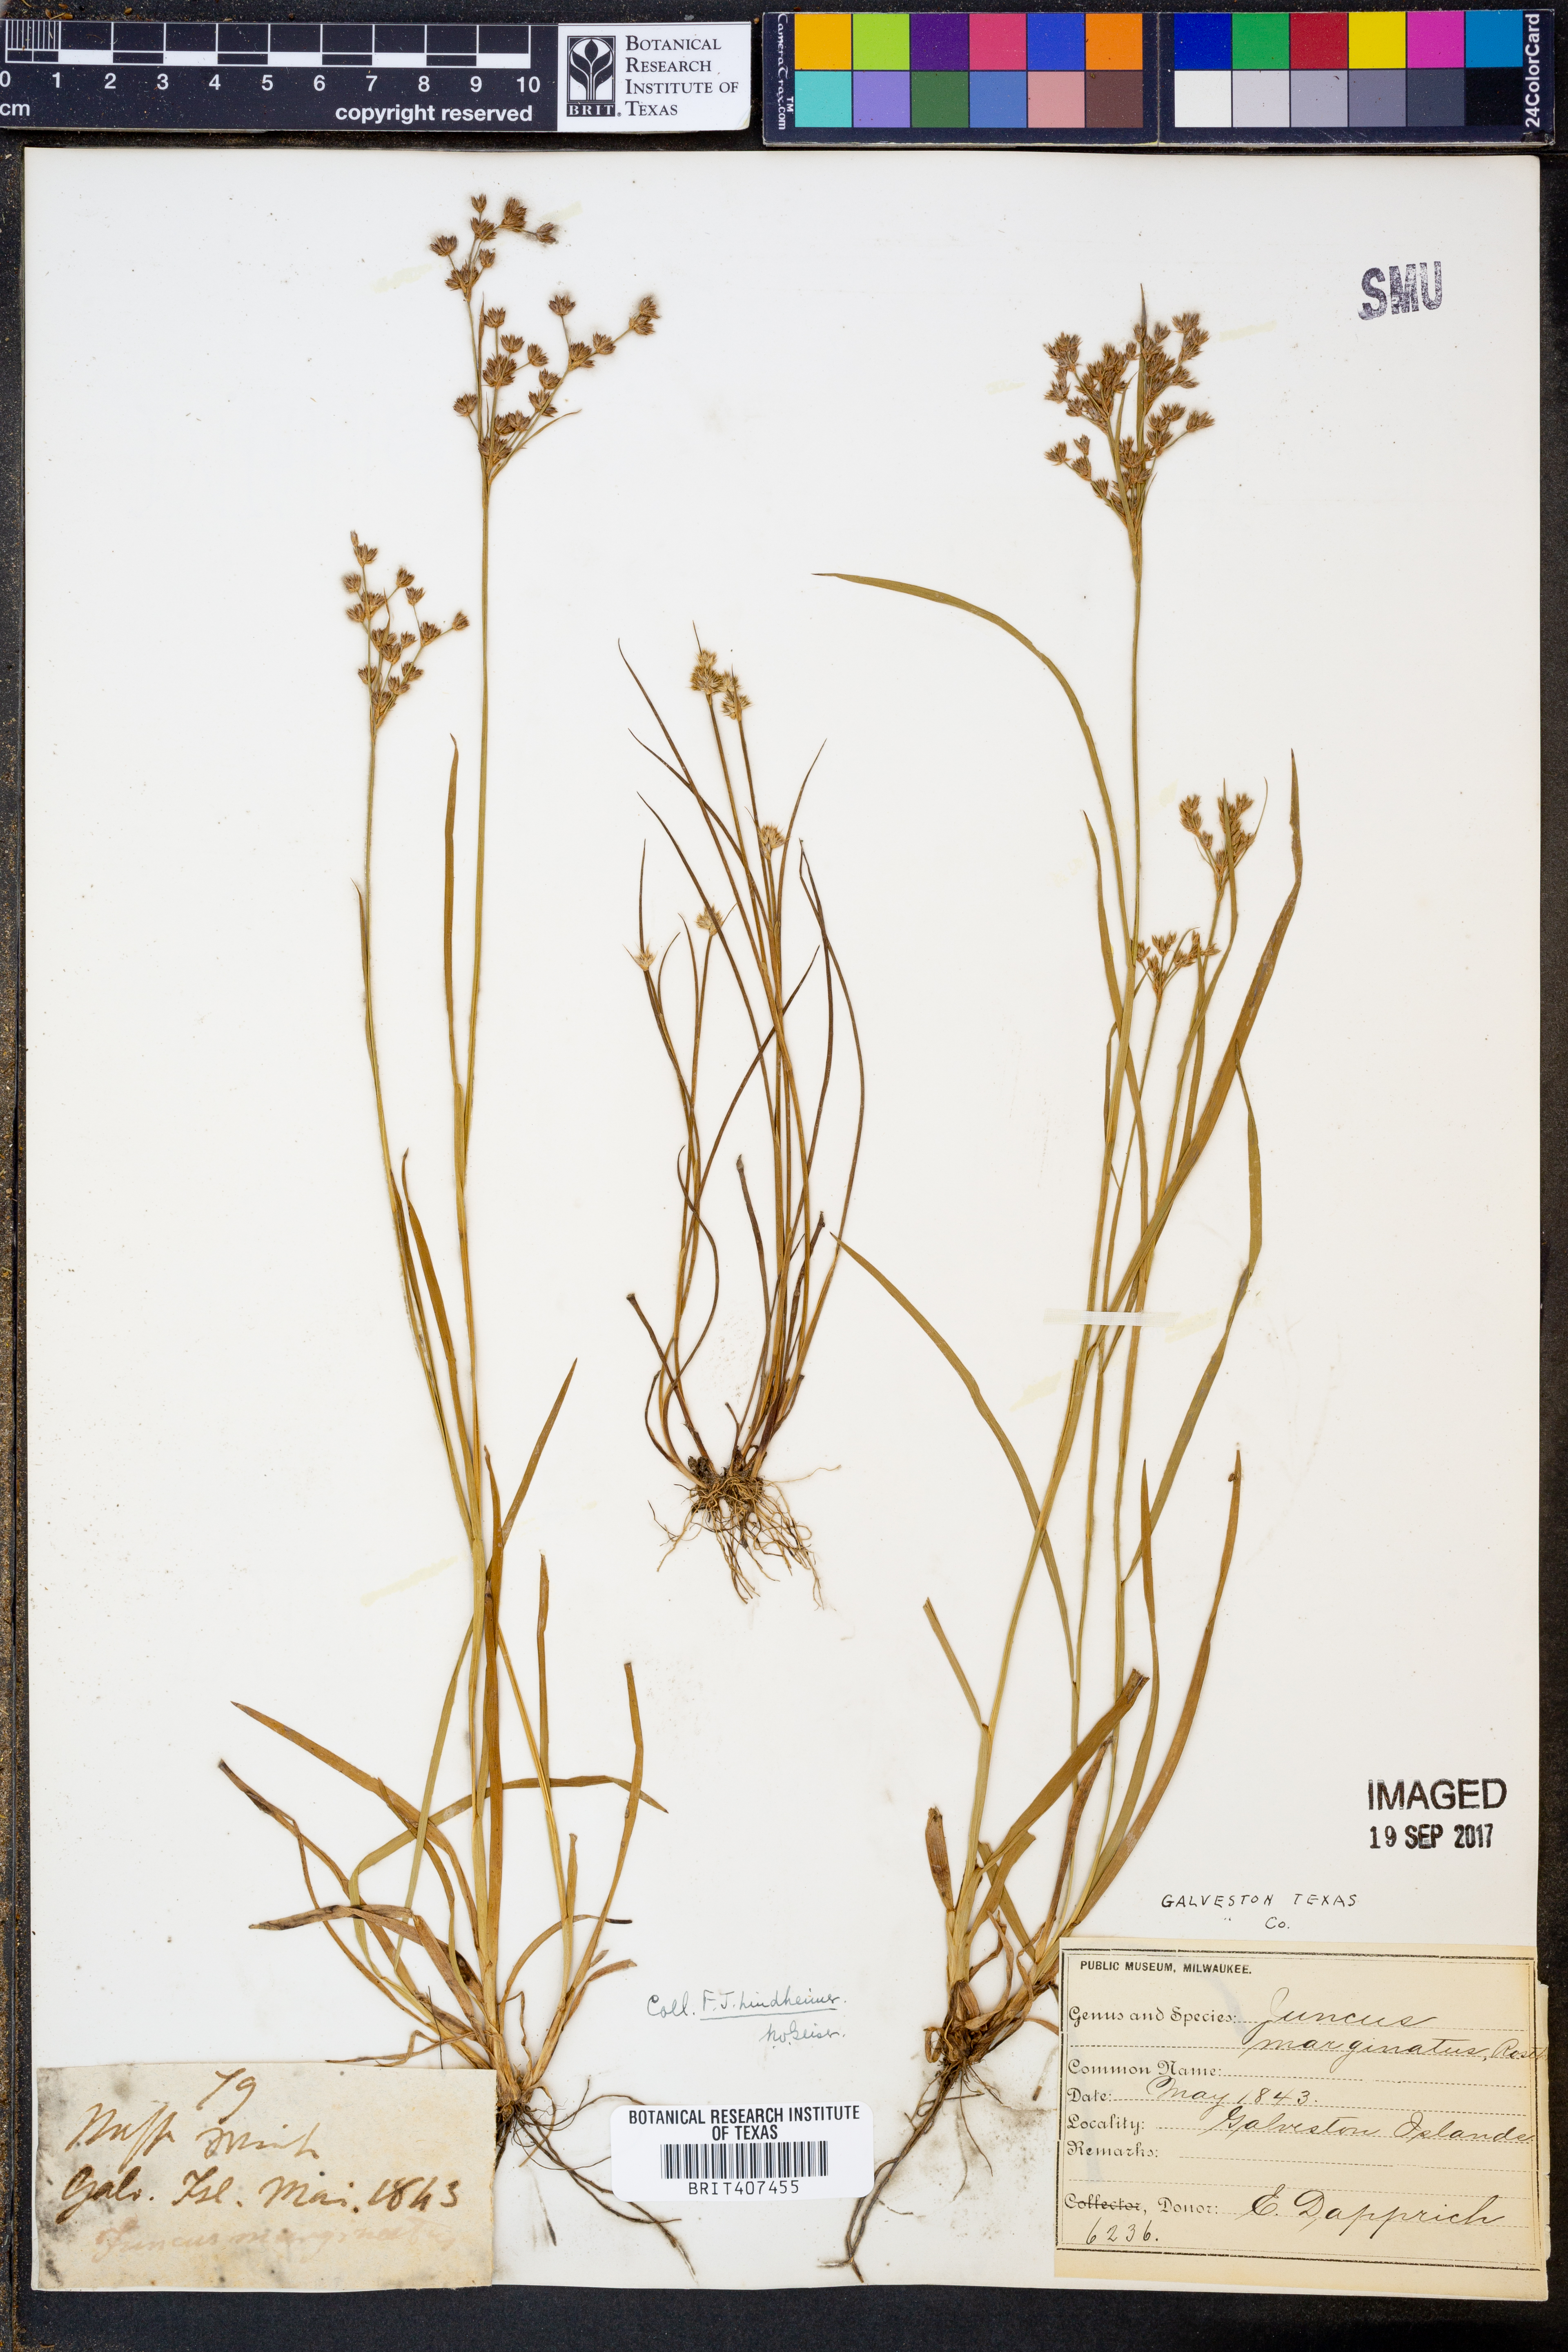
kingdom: Plantae
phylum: Tracheophyta
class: Liliopsida
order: Poales
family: Juncaceae
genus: Juncus
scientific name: Juncus marginatus
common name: Grass-leaf rush
